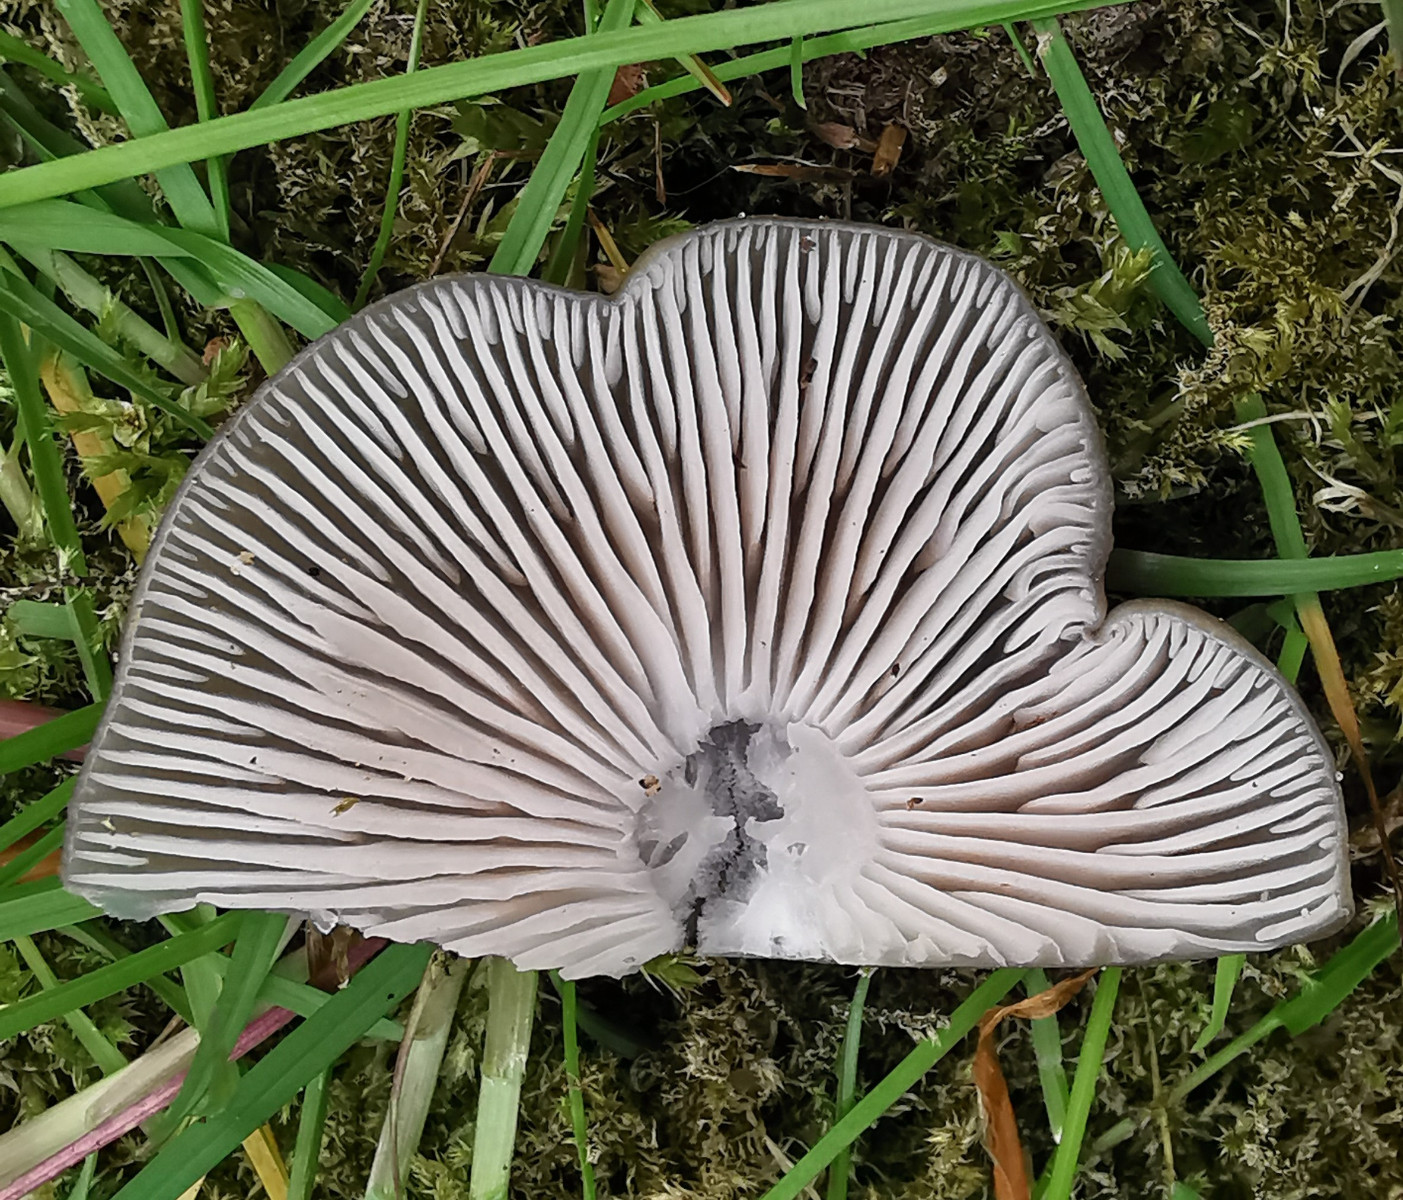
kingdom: Fungi
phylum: Basidiomycota
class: Agaricomycetes
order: Agaricales
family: Entolomataceae
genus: Entoloma
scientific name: Entoloma clypeatum
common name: flammet rødblad
